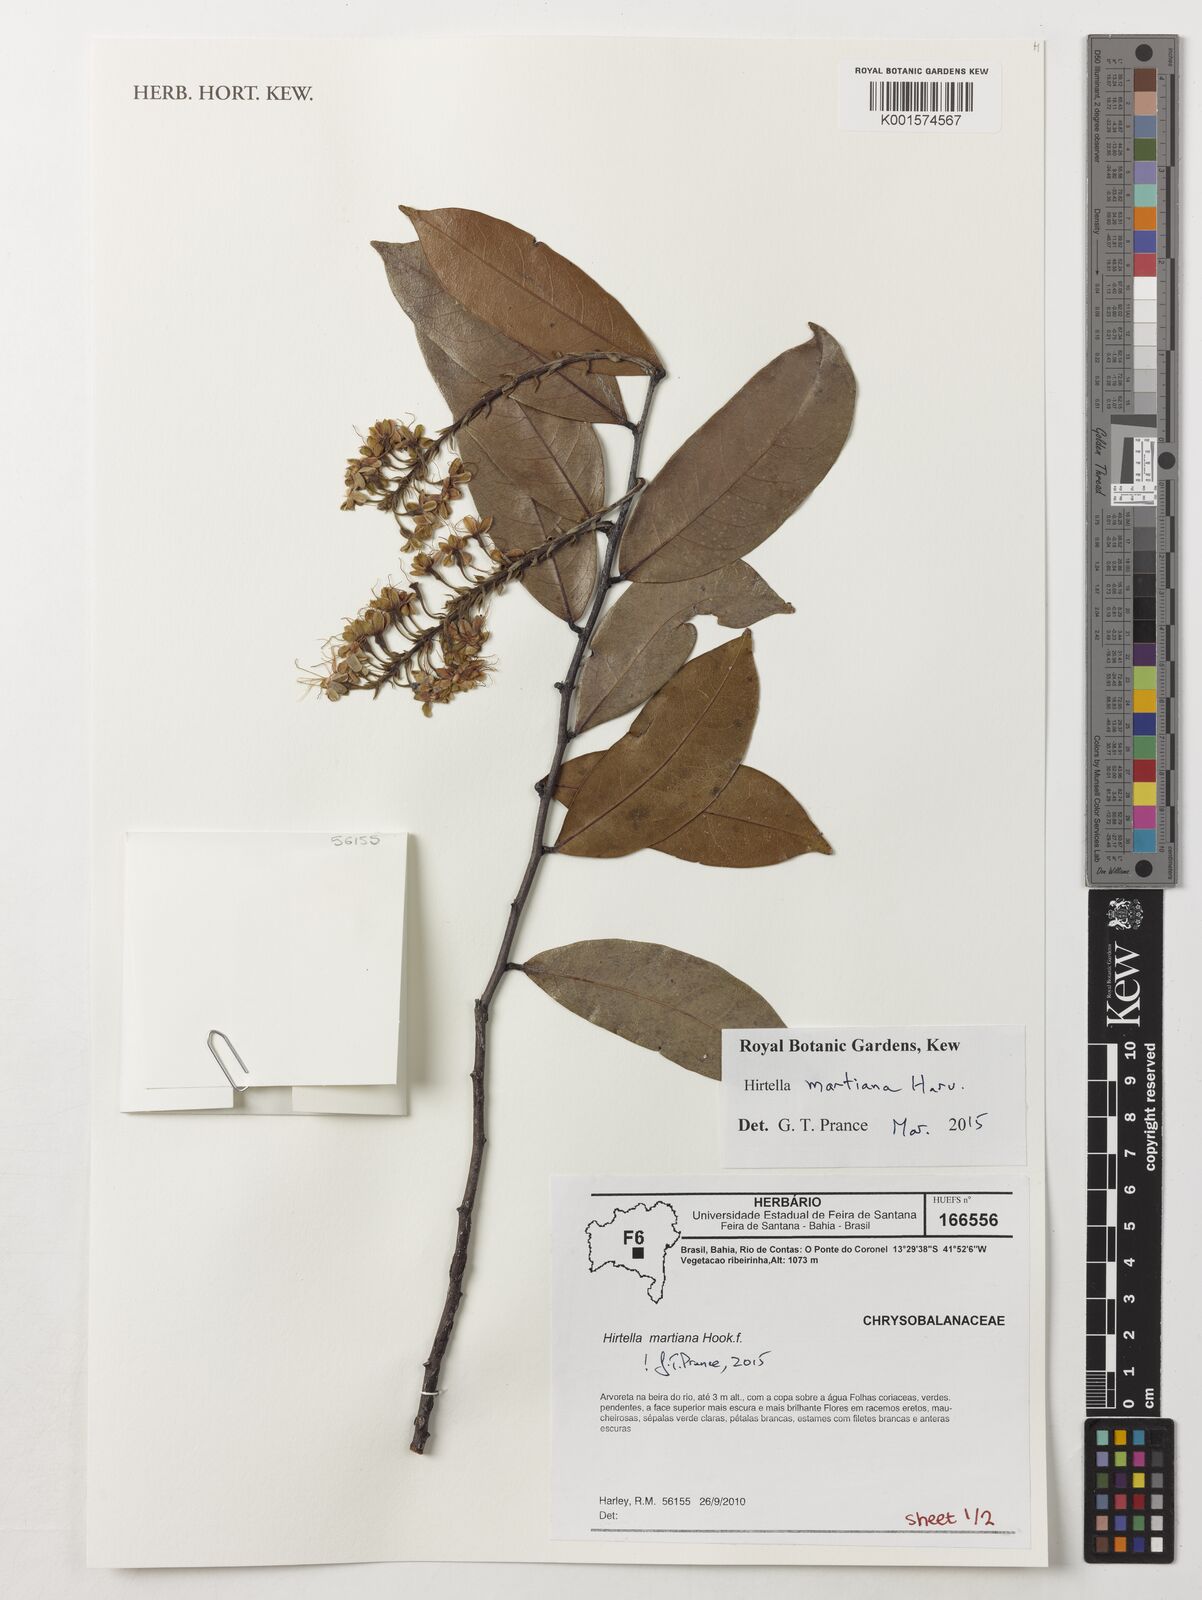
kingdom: Plantae
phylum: Tracheophyta
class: Magnoliopsida
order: Malpighiales
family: Chrysobalanaceae
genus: Hirtella
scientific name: Hirtella martiana
